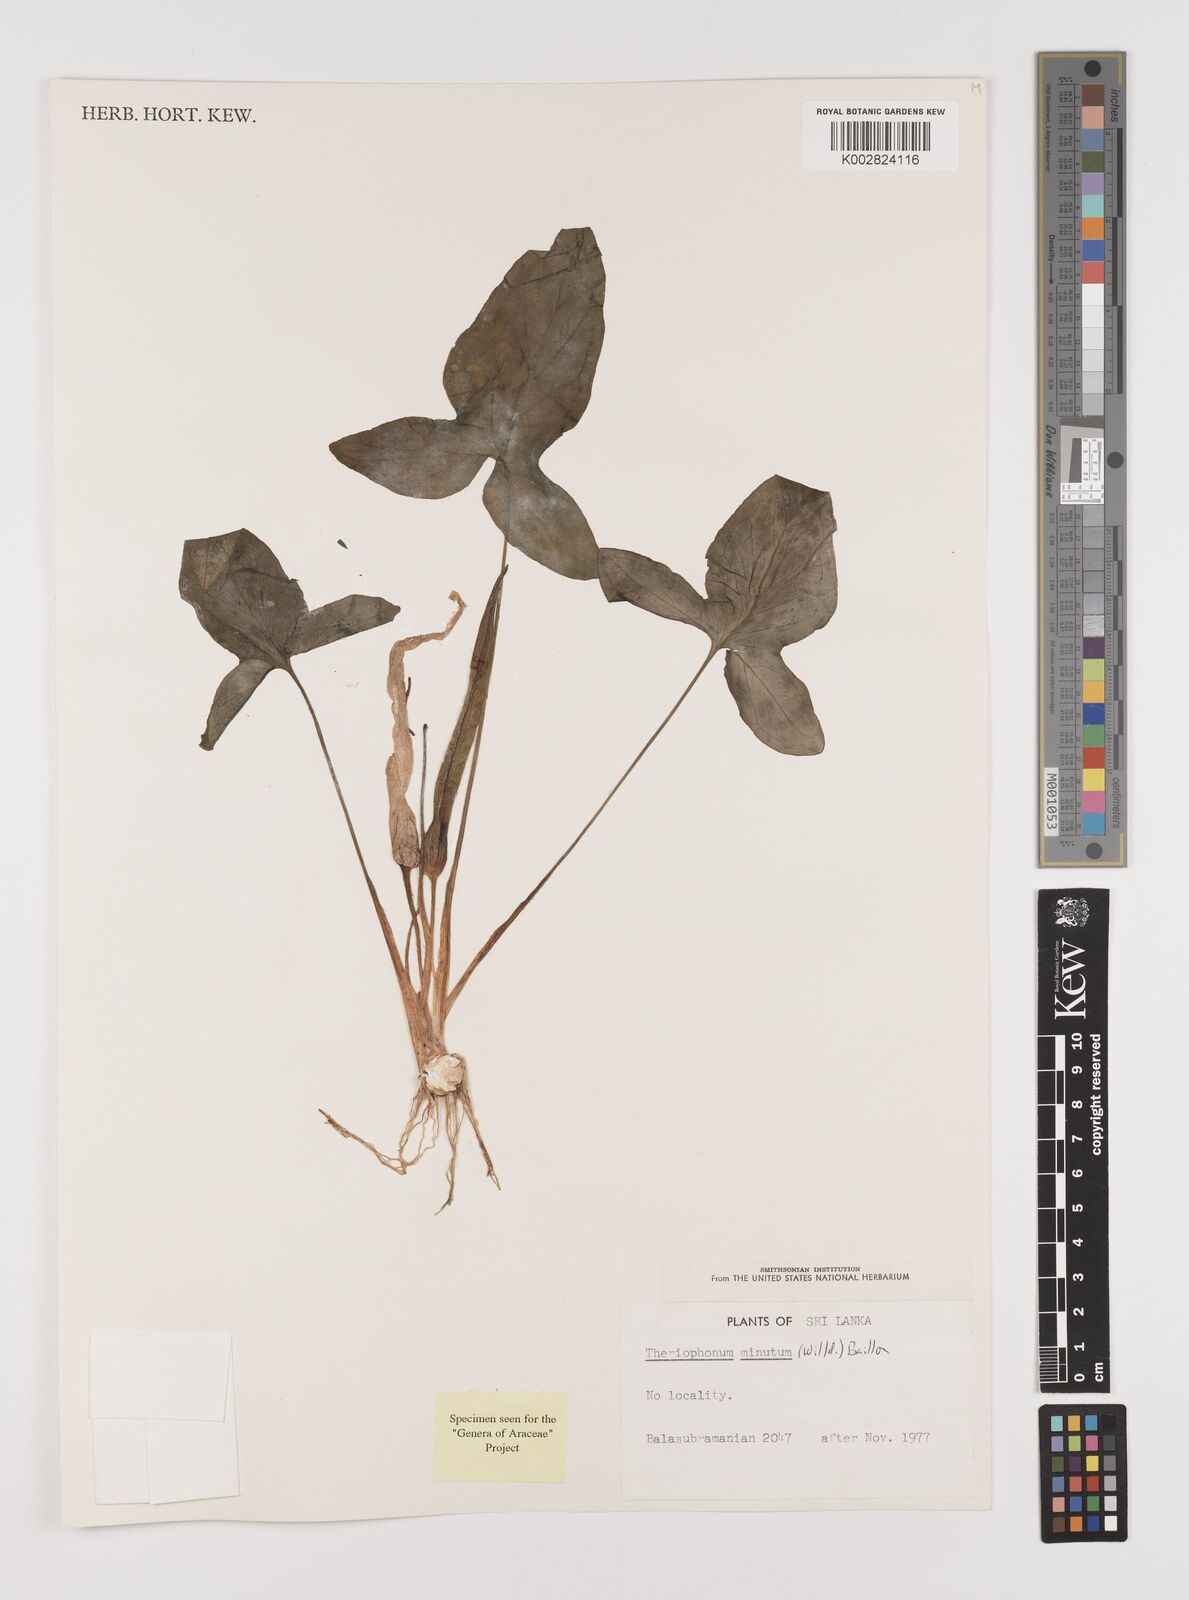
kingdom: Plantae
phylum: Tracheophyta
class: Liliopsida
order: Alismatales
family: Araceae
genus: Theriophonum
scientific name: Theriophonum minutum
